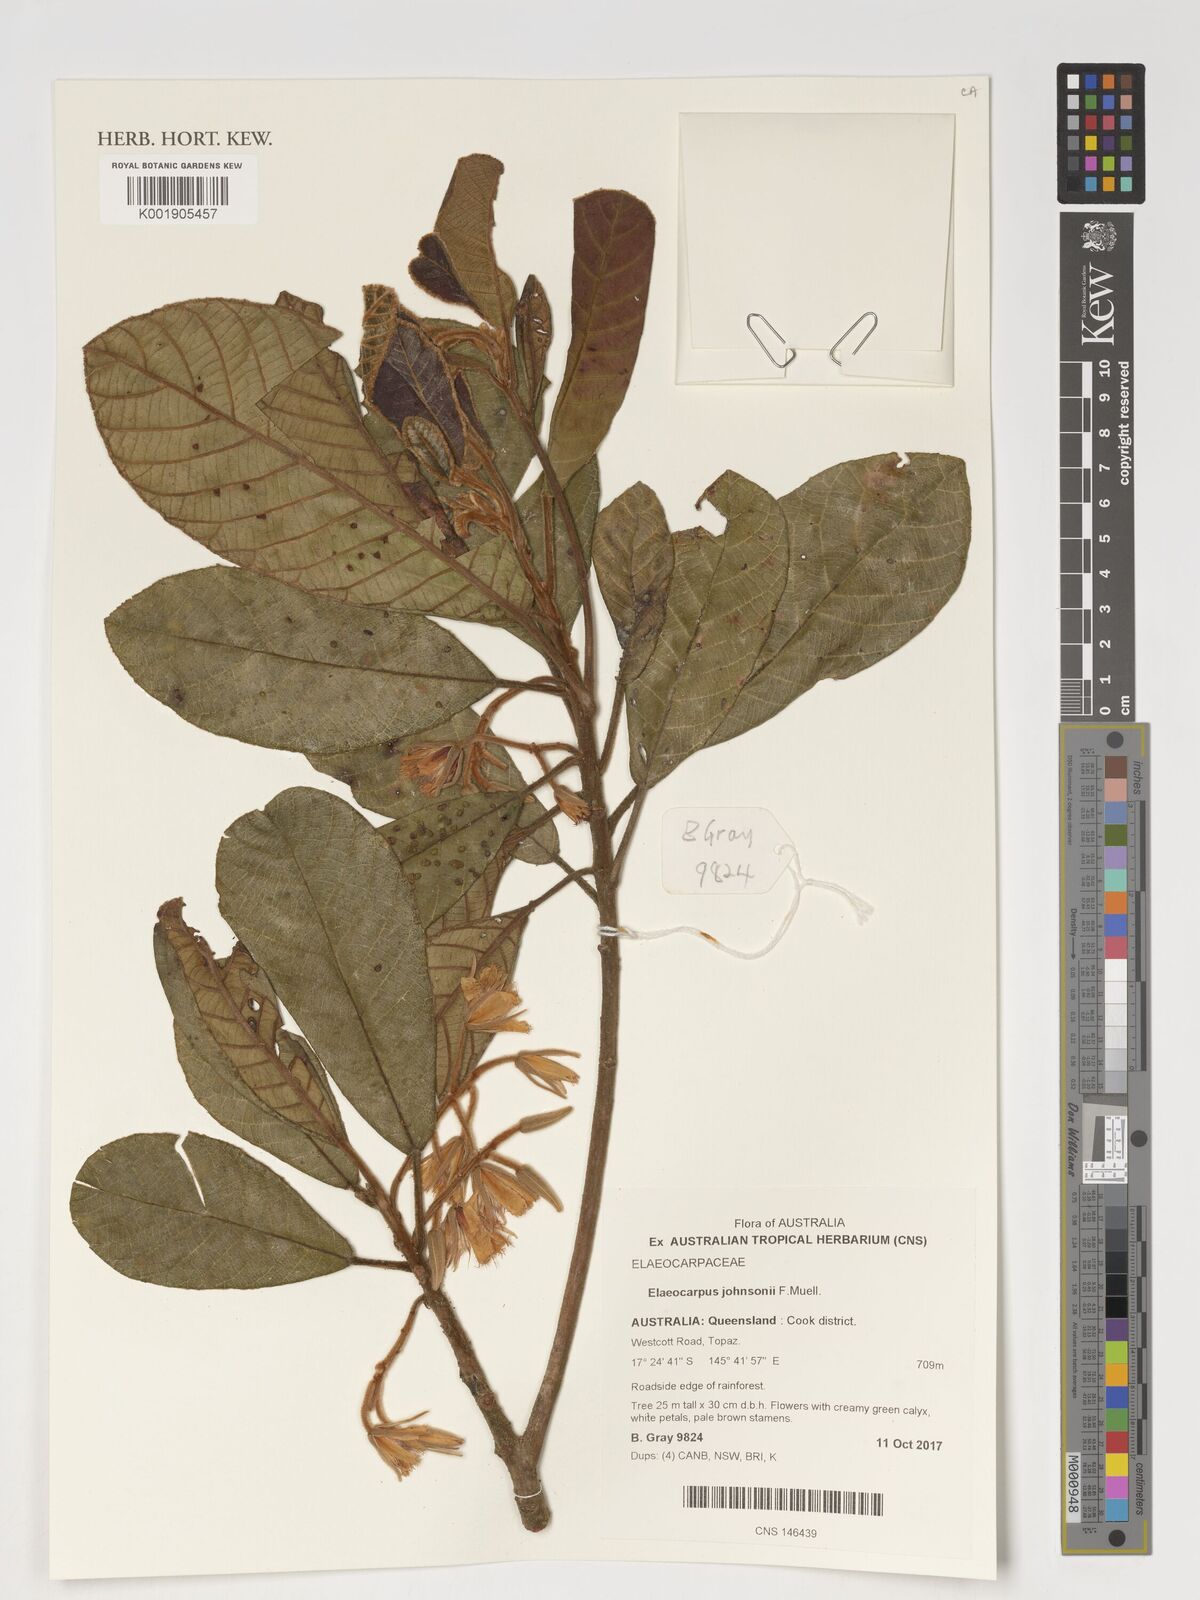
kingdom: Plantae
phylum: Tracheophyta
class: Magnoliopsida
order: Oxalidales
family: Elaeocarpaceae
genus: Elaeocarpus
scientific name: Elaeocarpus johnsonii
